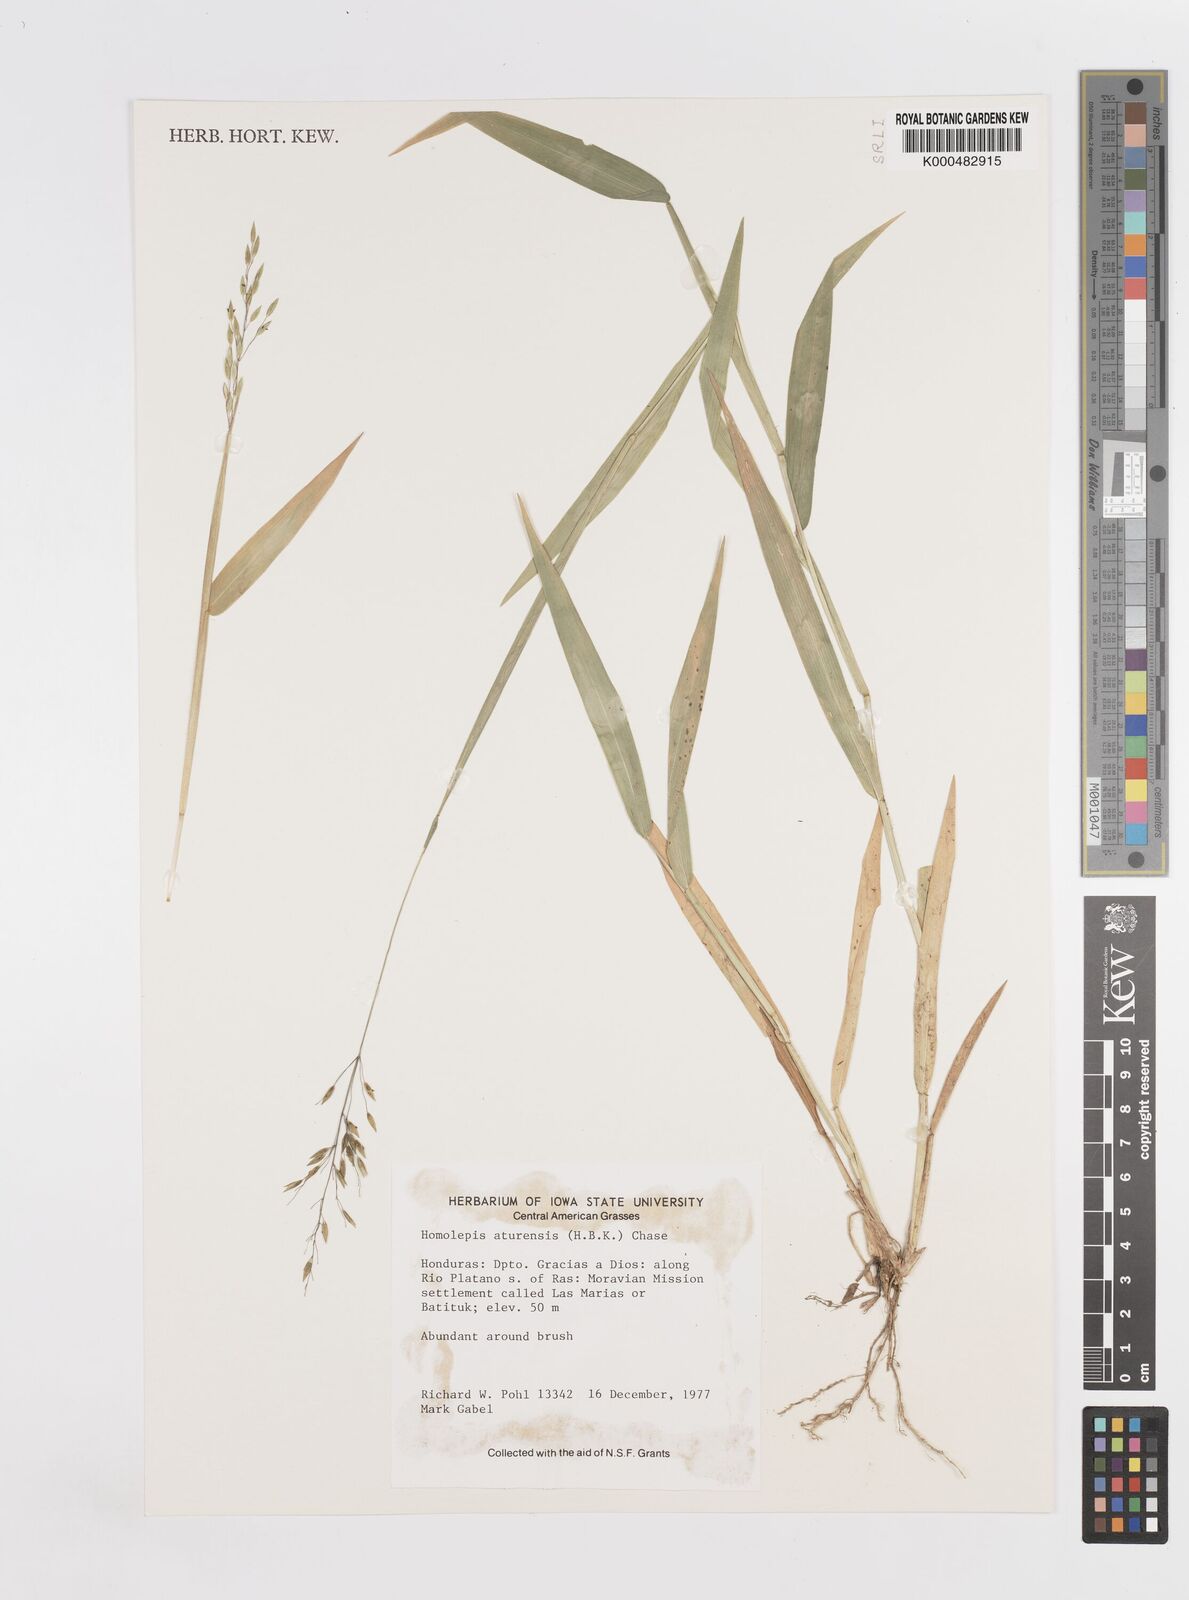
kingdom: Plantae
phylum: Tracheophyta
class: Liliopsida
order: Poales
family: Poaceae
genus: Homolepis
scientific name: Homolepis aturensis
